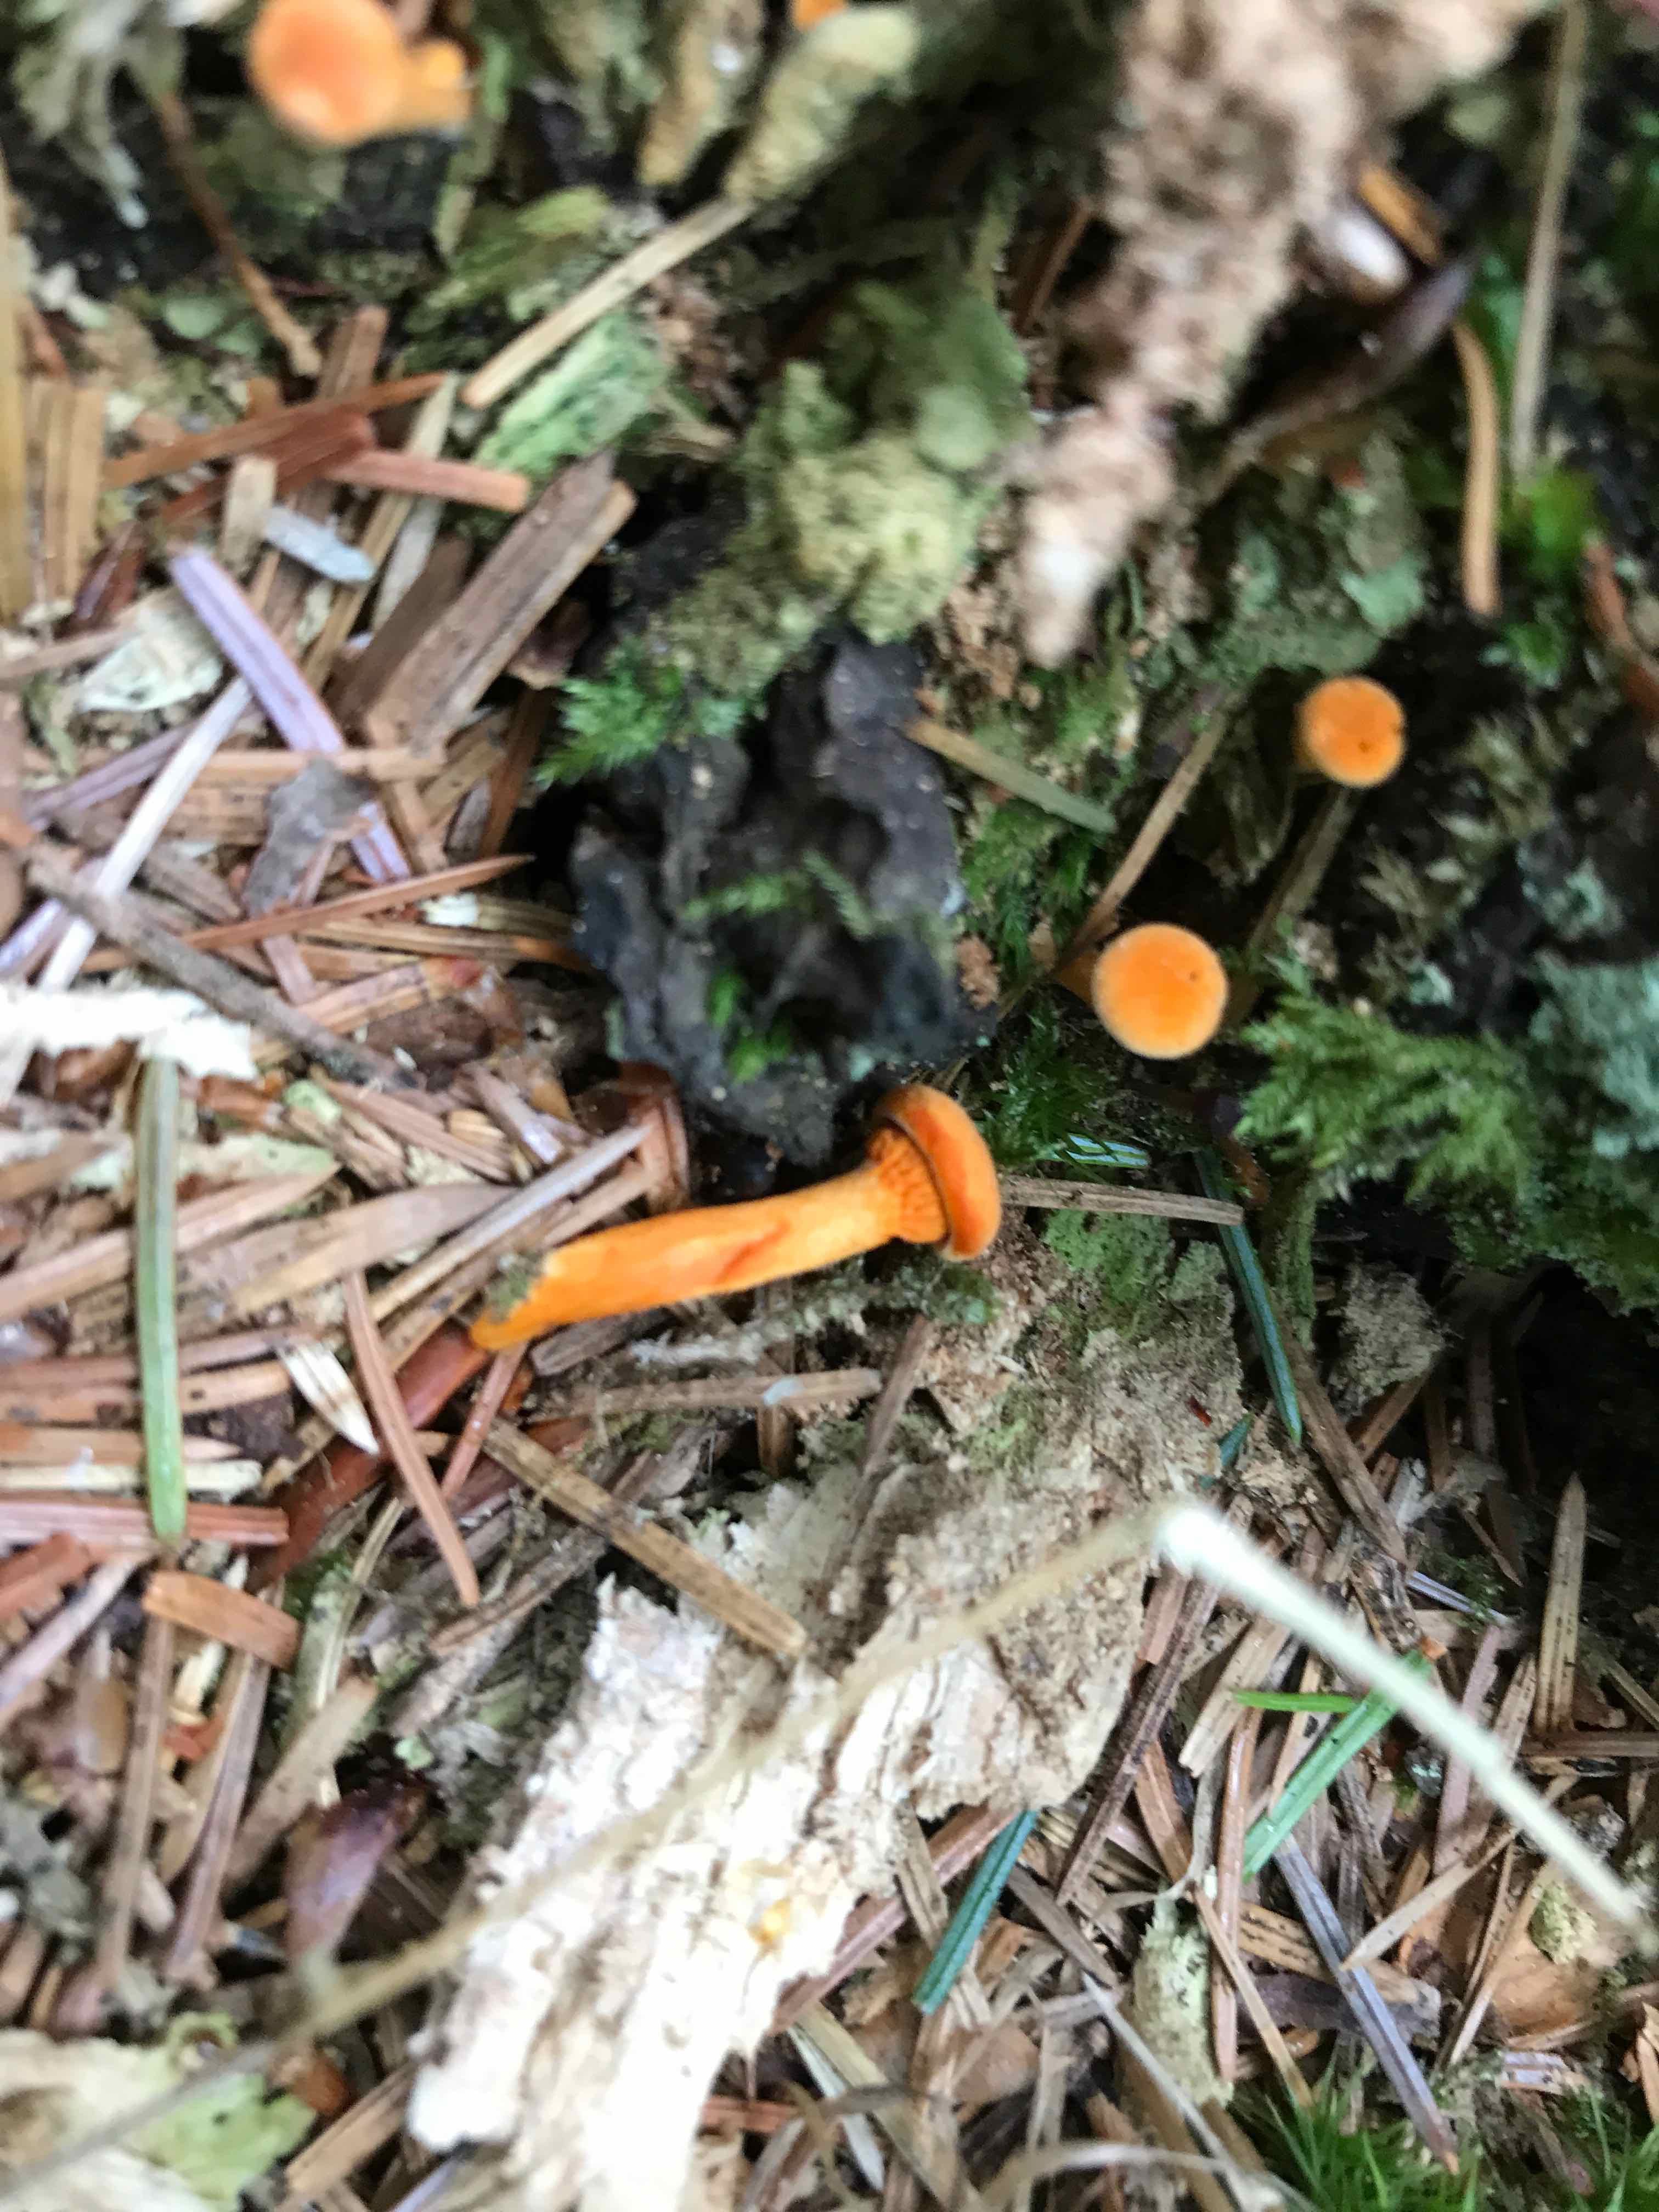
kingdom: Fungi
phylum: Basidiomycota
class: Agaricomycetes
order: Boletales
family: Hygrophoropsidaceae
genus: Hygrophoropsis
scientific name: Hygrophoropsis aurantiaca
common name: almindelig orangekantarel
